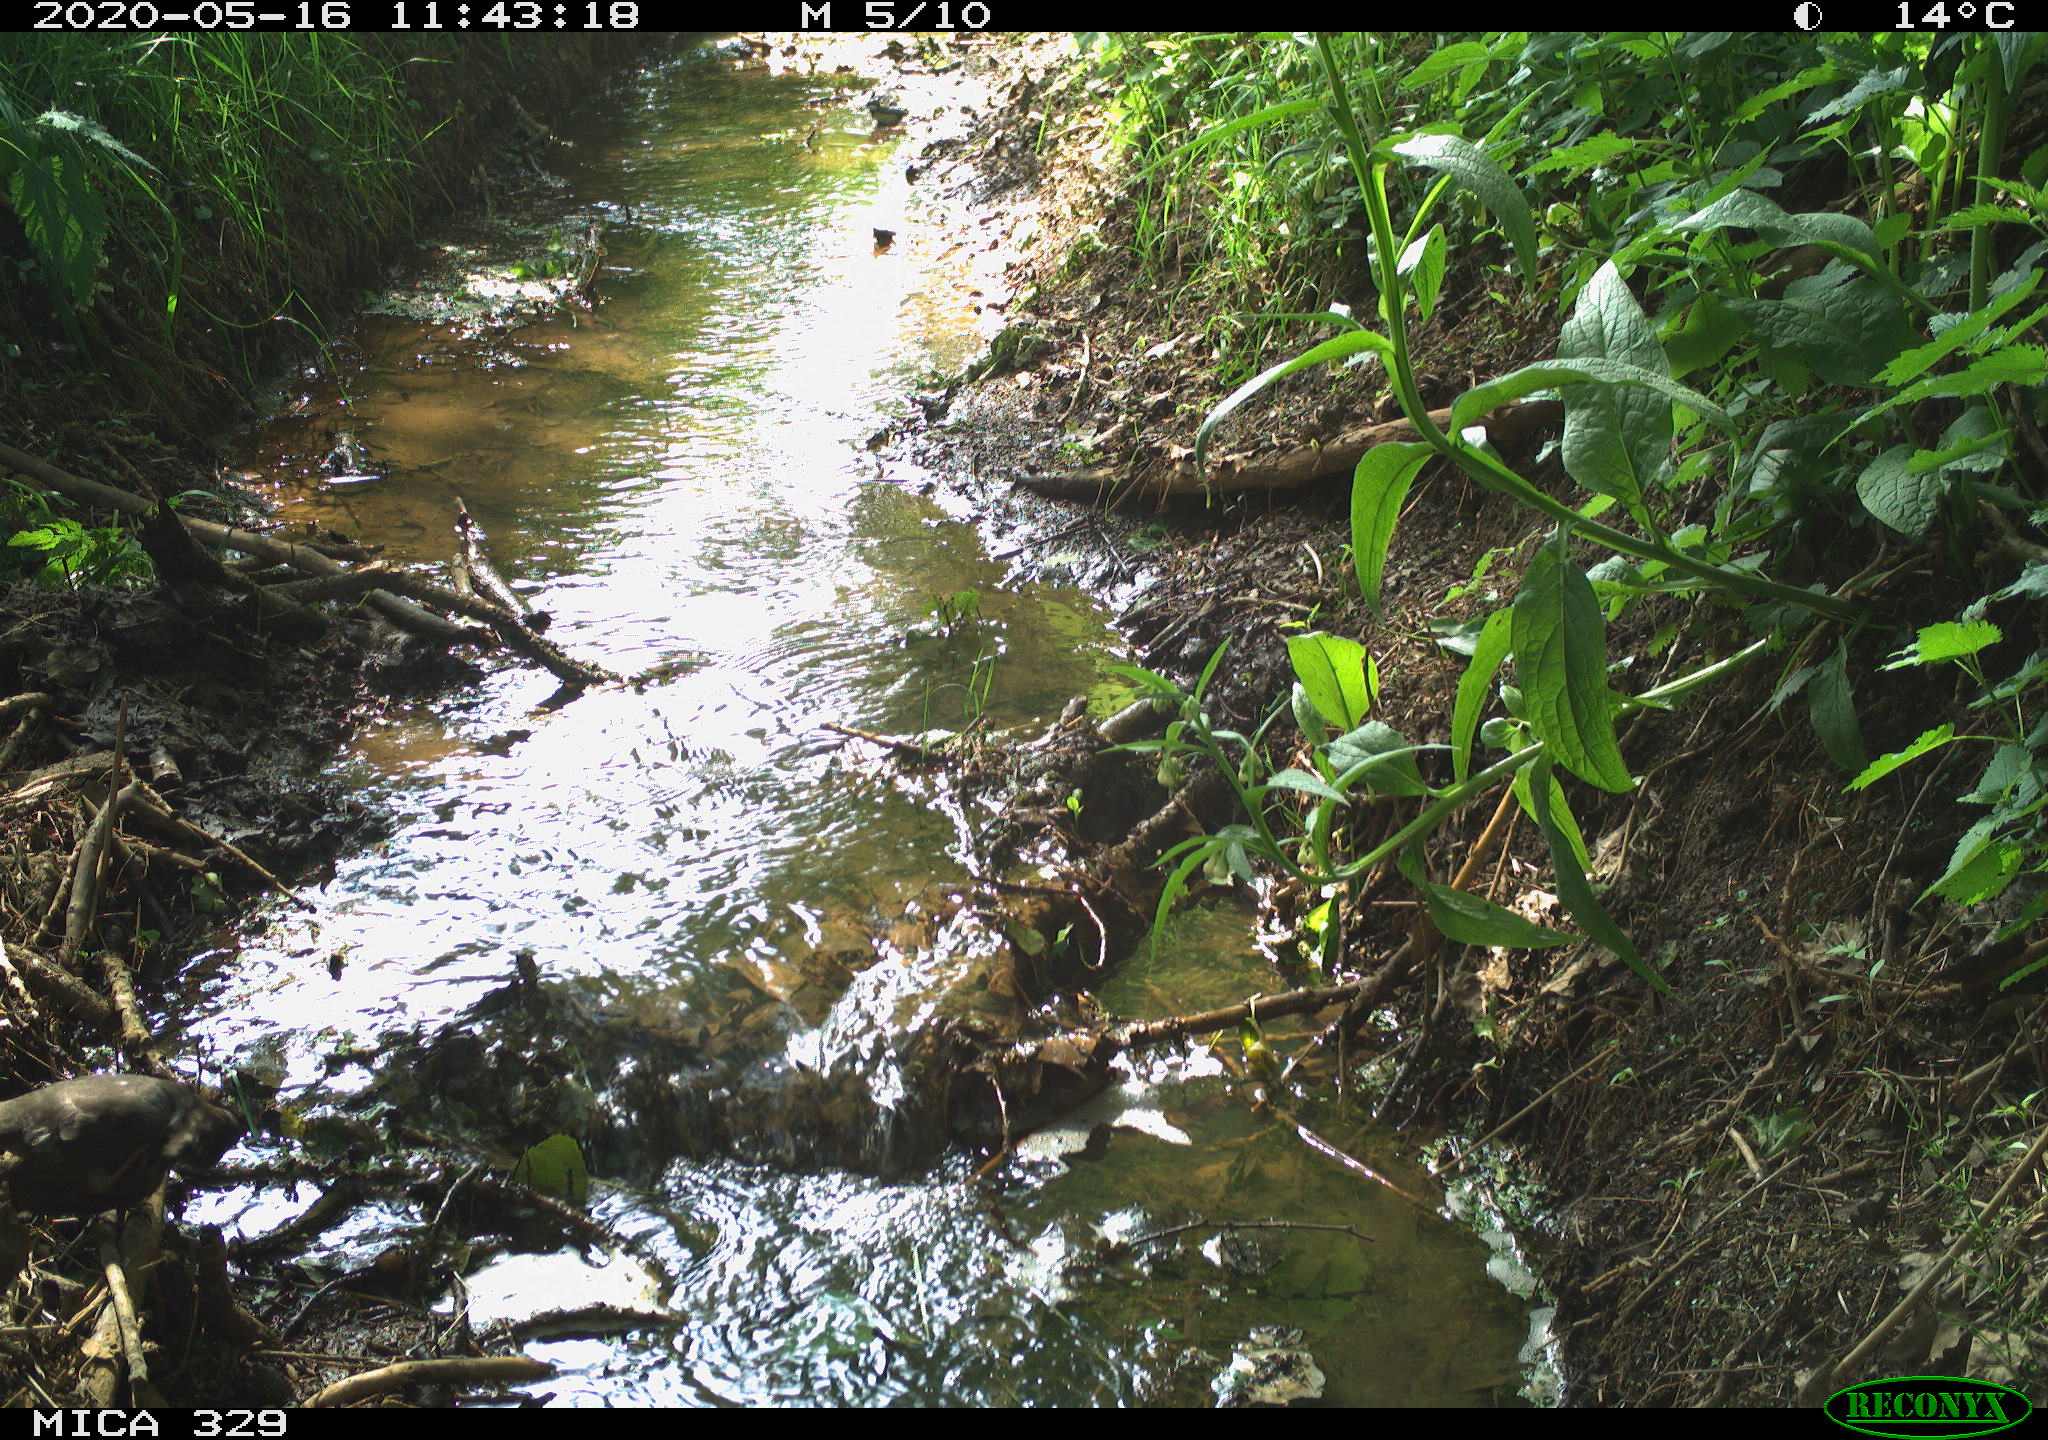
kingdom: Animalia
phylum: Chordata
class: Aves
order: Passeriformes
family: Turdidae
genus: Turdus
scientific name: Turdus merula
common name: Common blackbird
